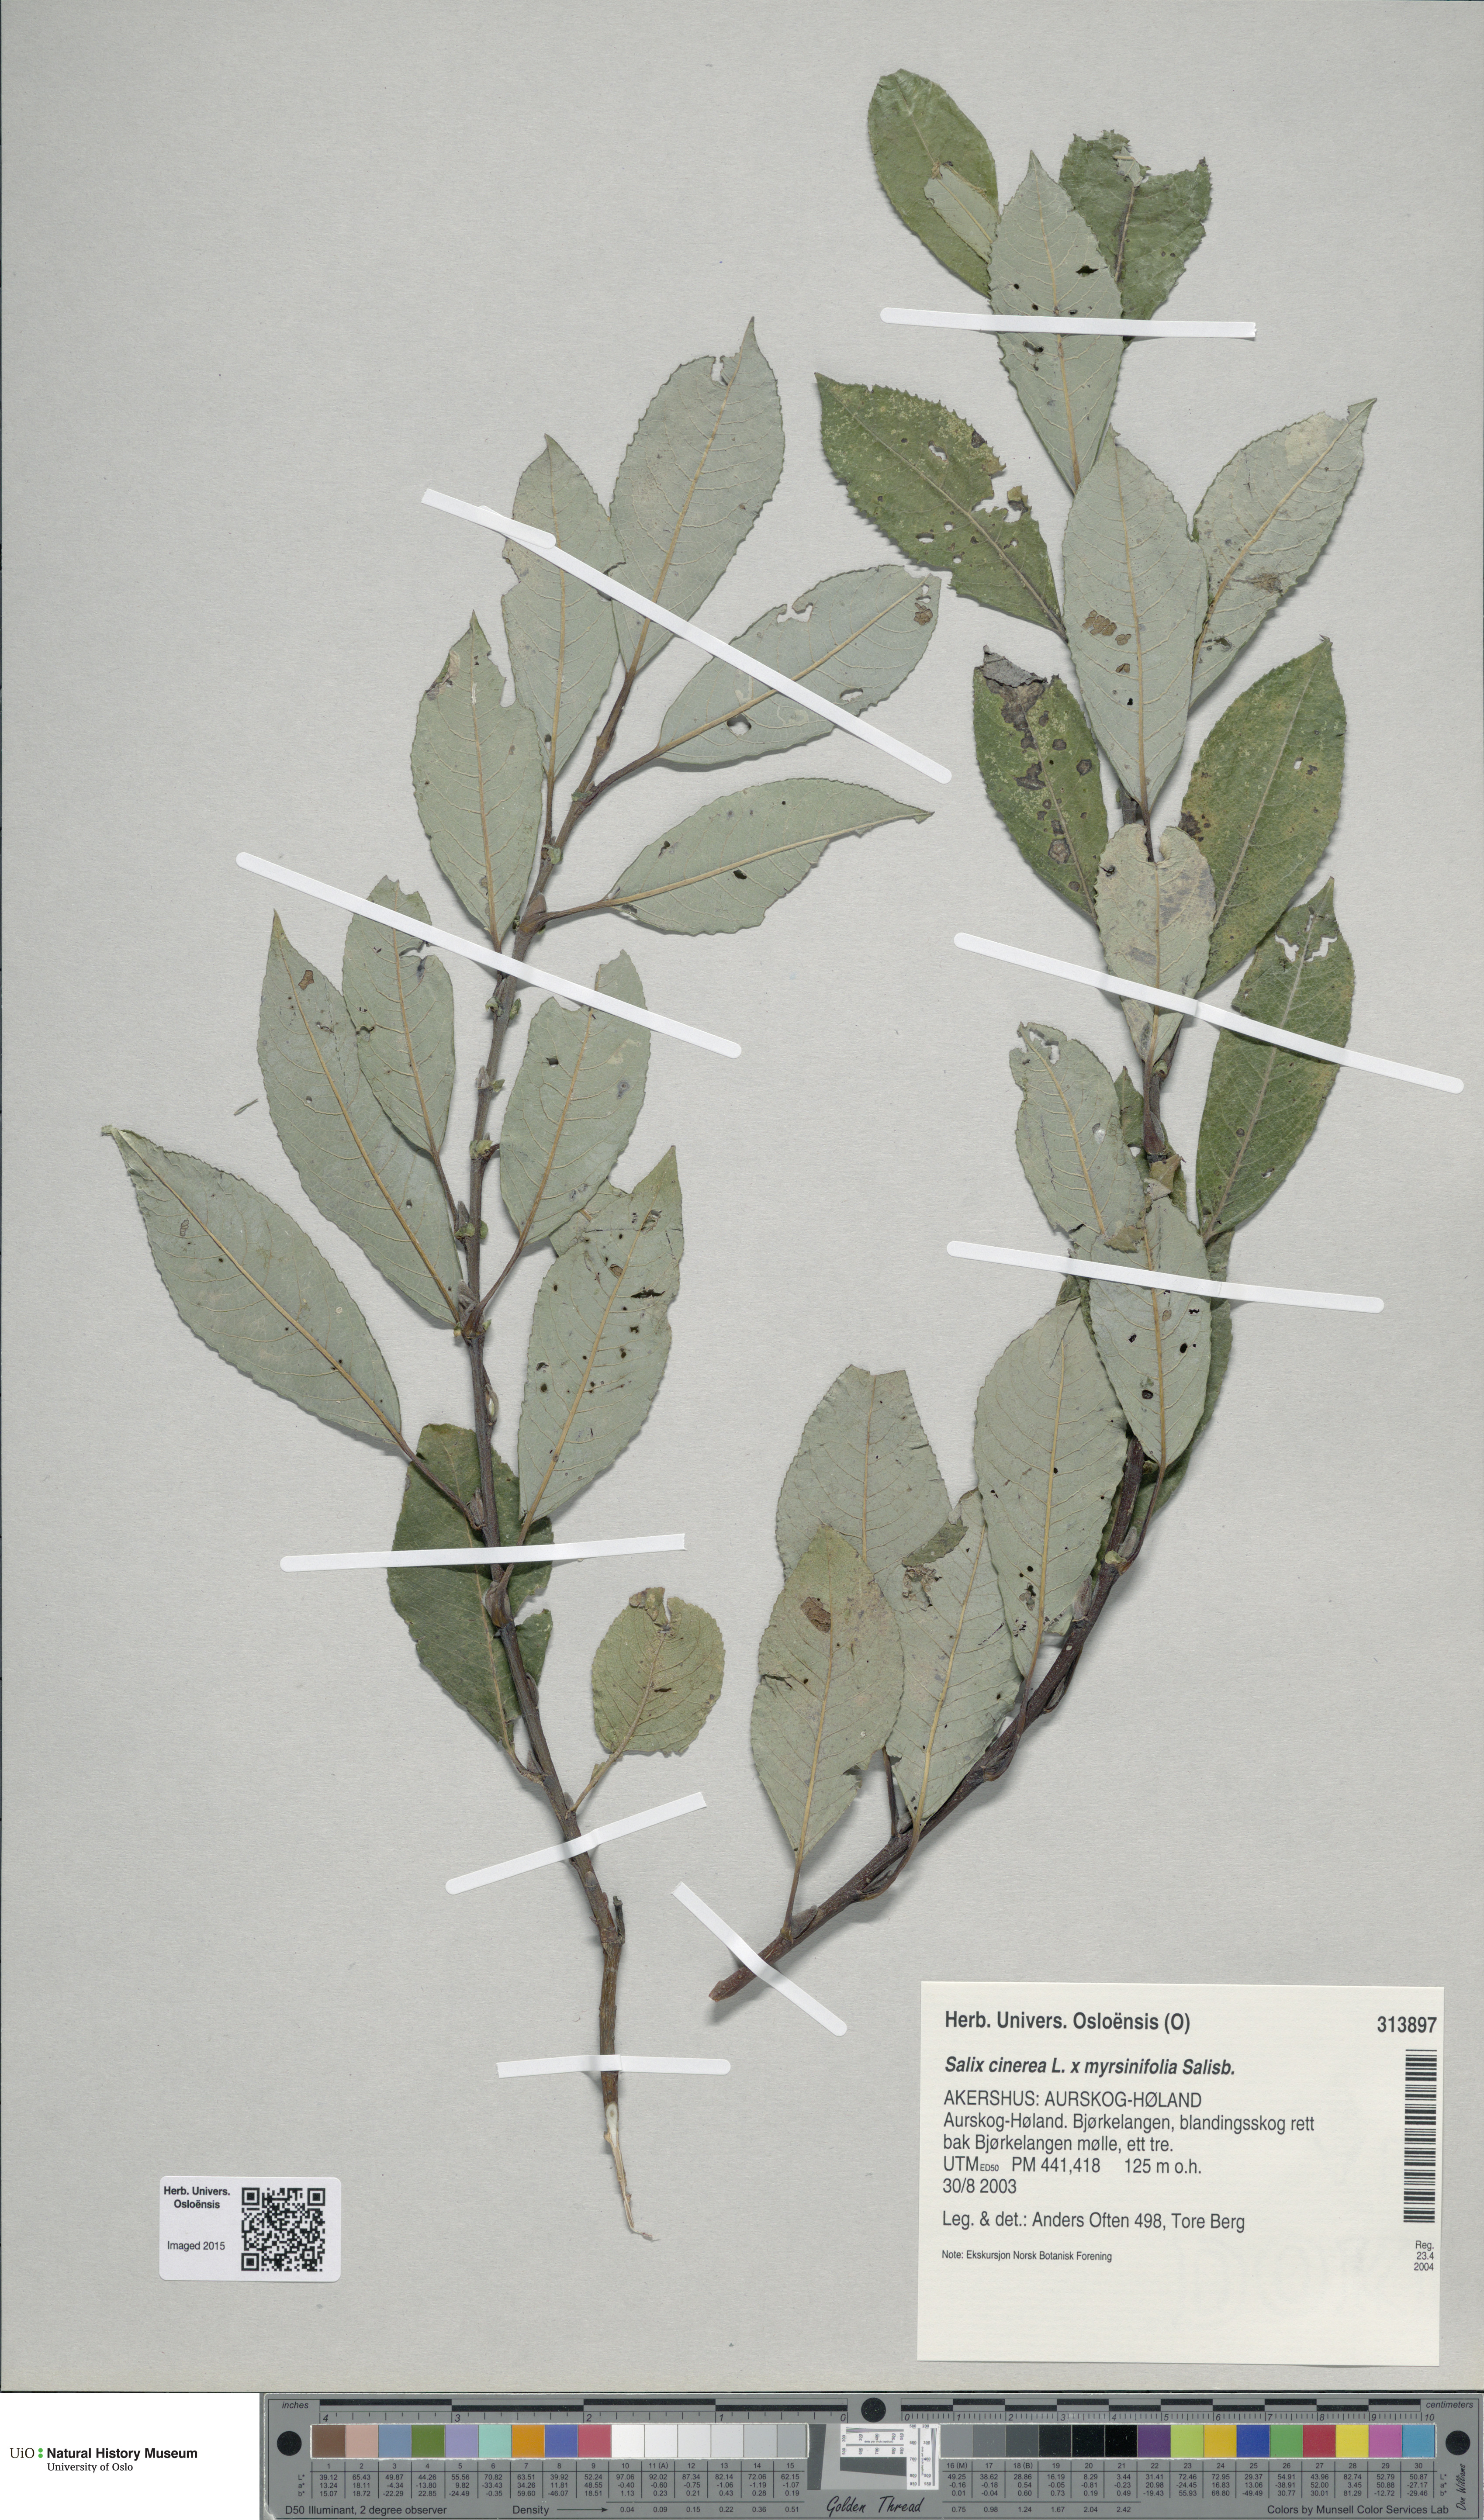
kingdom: Plantae
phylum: Tracheophyta
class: Magnoliopsida
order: Malpighiales
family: Salicaceae
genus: Salix
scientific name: Salix
